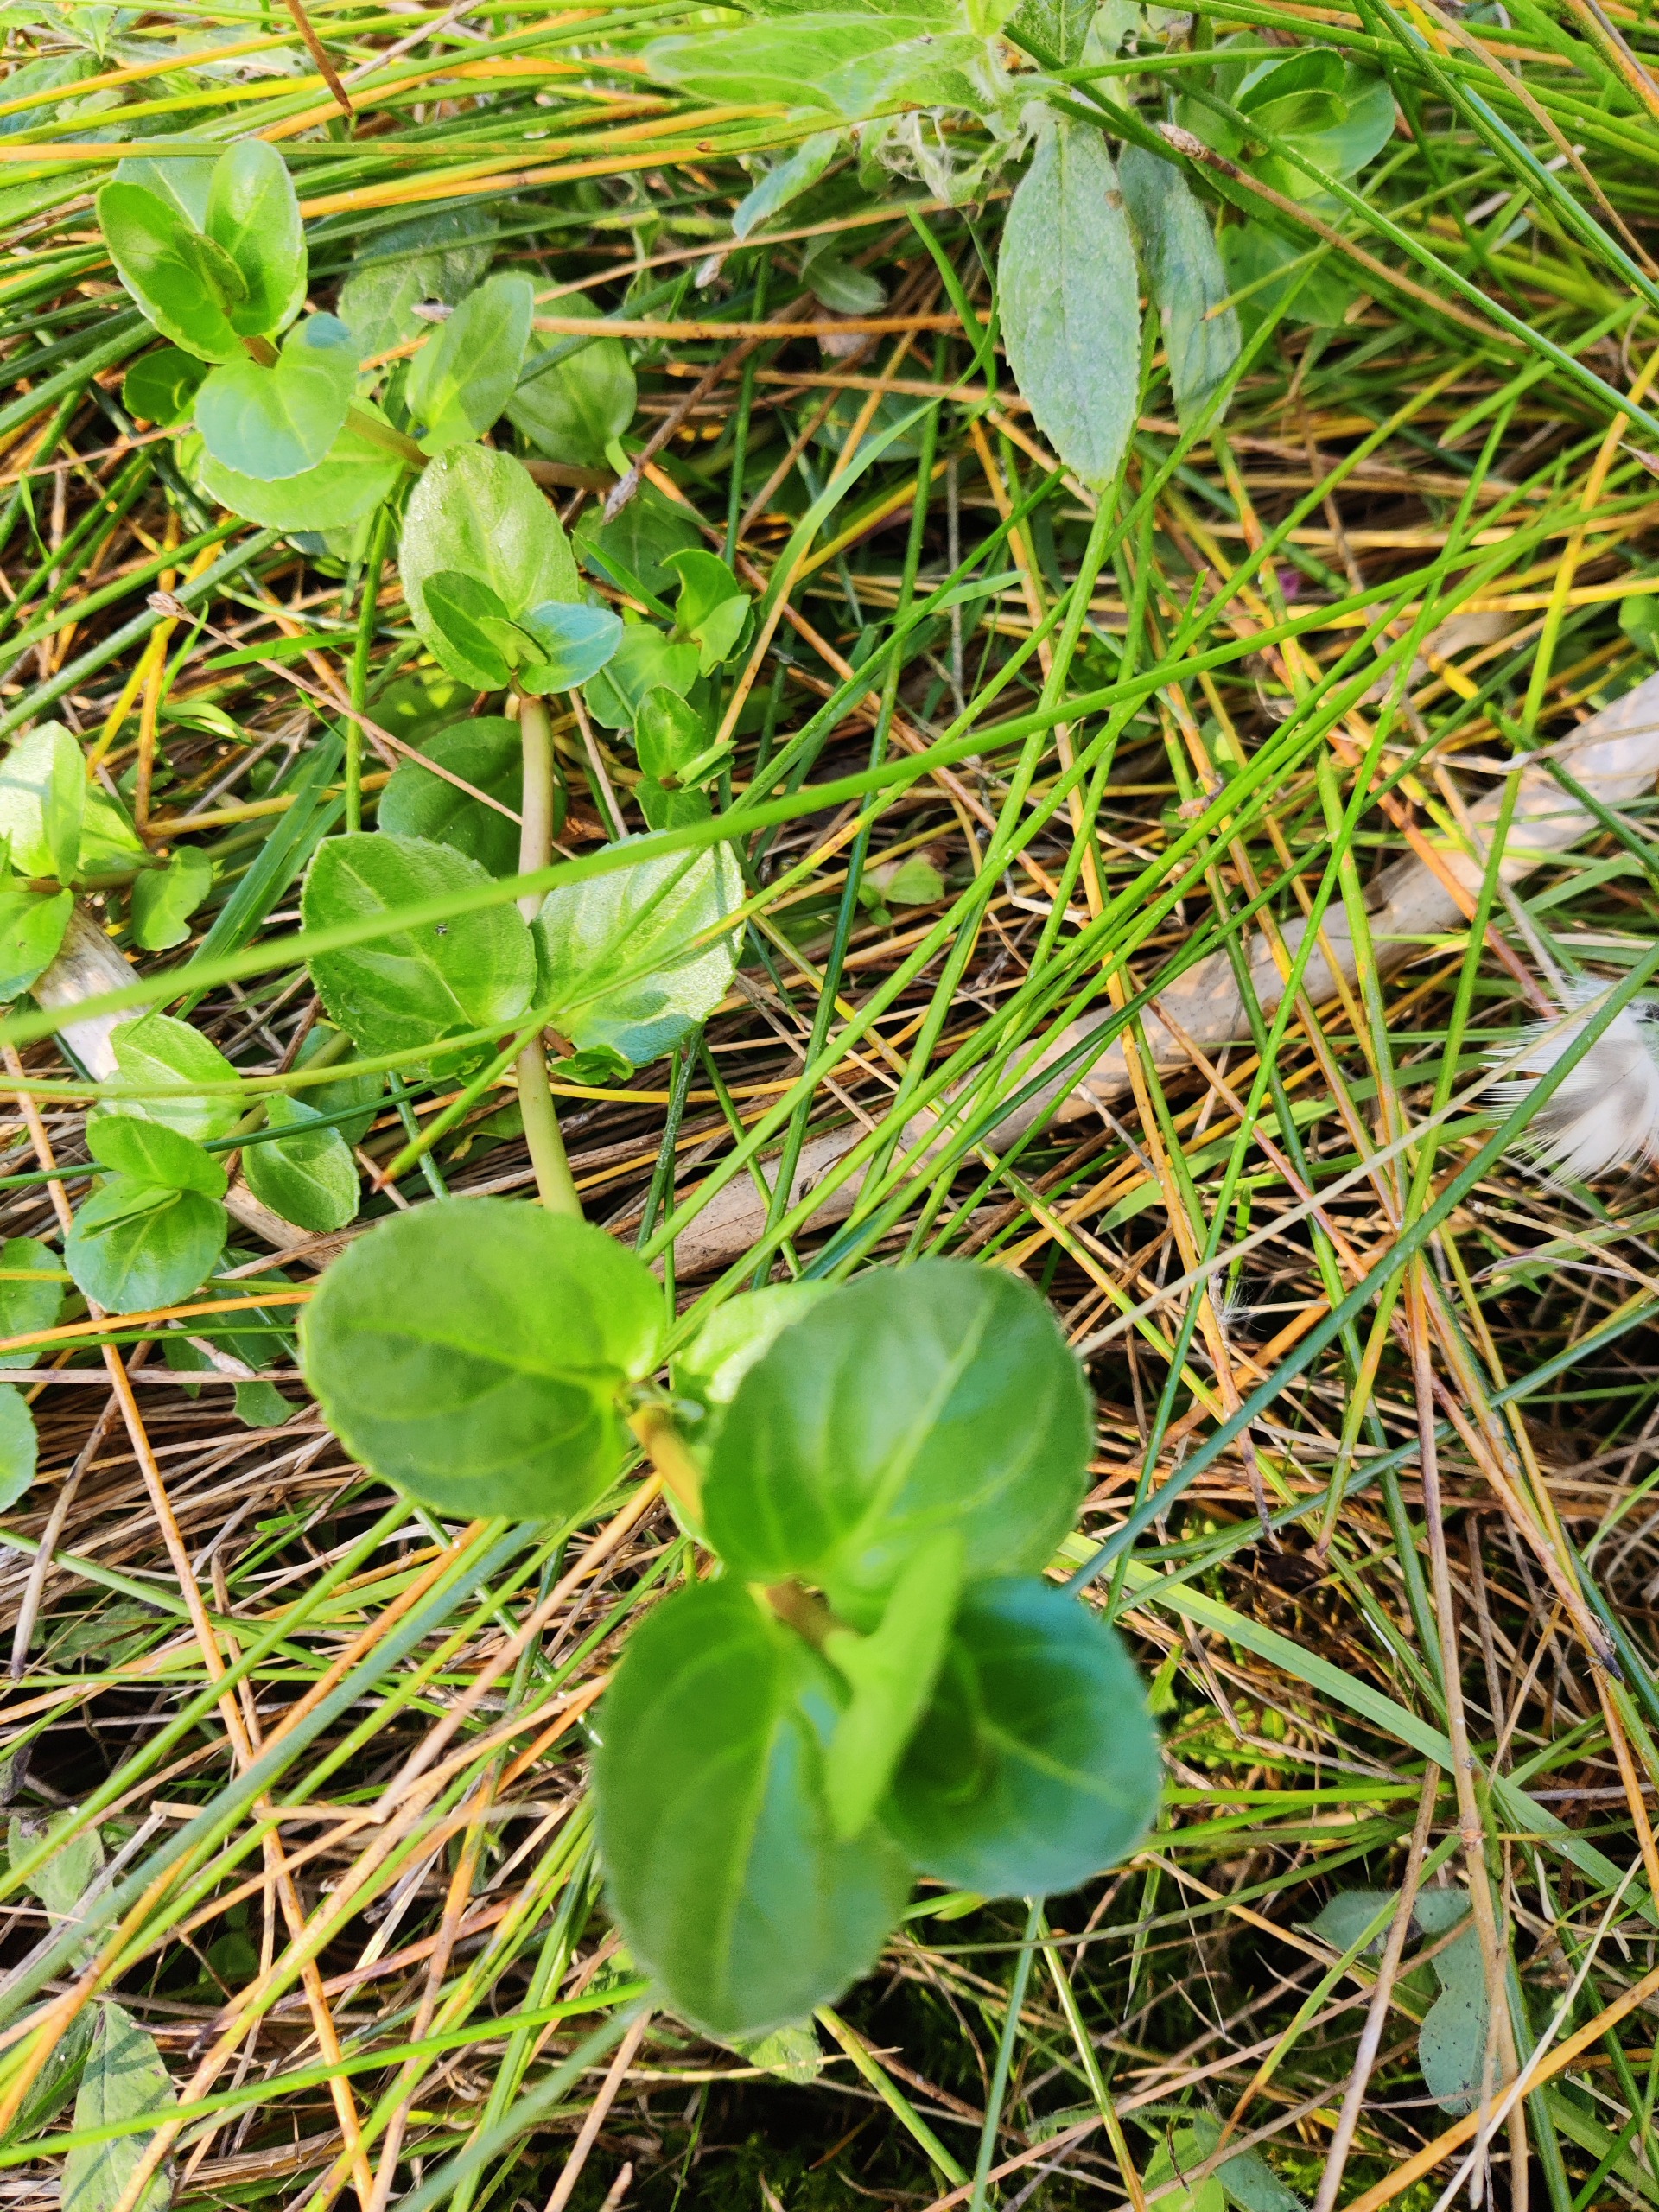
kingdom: Plantae
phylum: Tracheophyta
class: Magnoliopsida
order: Lamiales
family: Plantaginaceae
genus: Veronica
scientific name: Veronica beccabunga
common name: Tykbladet ærenpris
